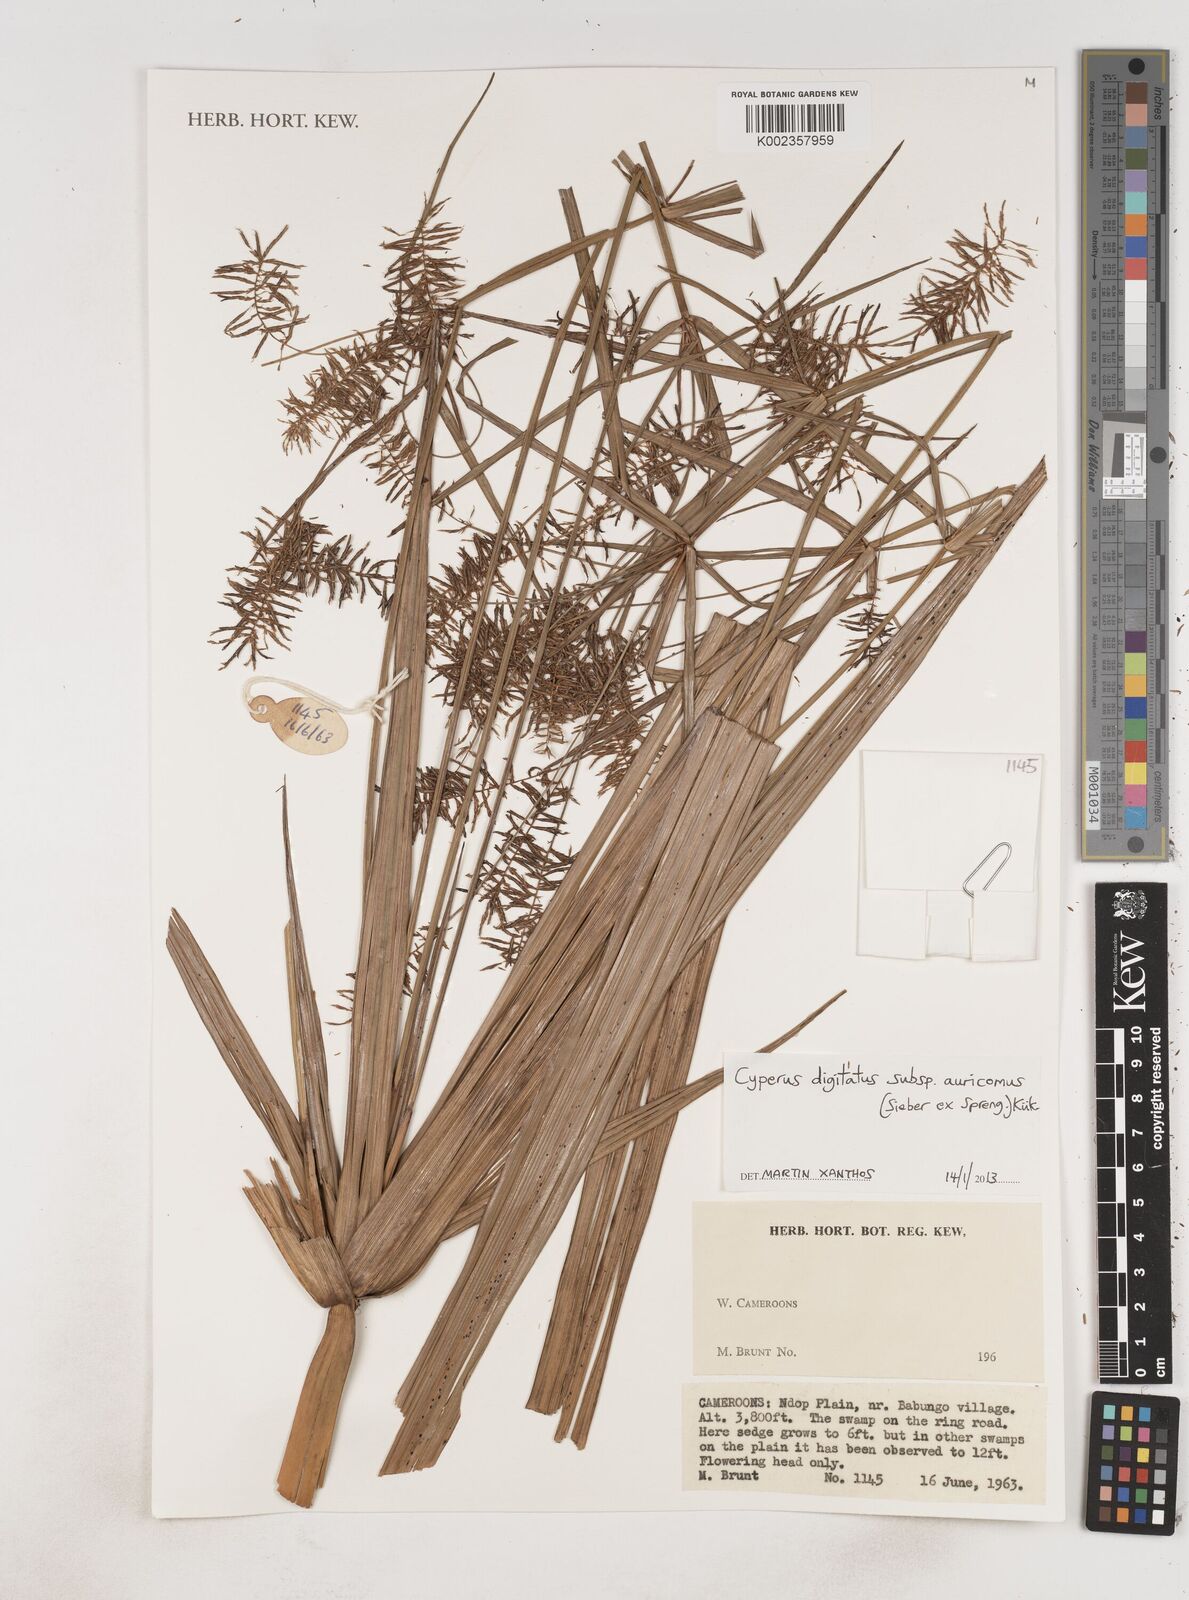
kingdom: Plantae
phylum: Tracheophyta
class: Liliopsida
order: Poales
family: Cyperaceae
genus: Cyperus
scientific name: Cyperus digitatus
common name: Finger flatsedge
